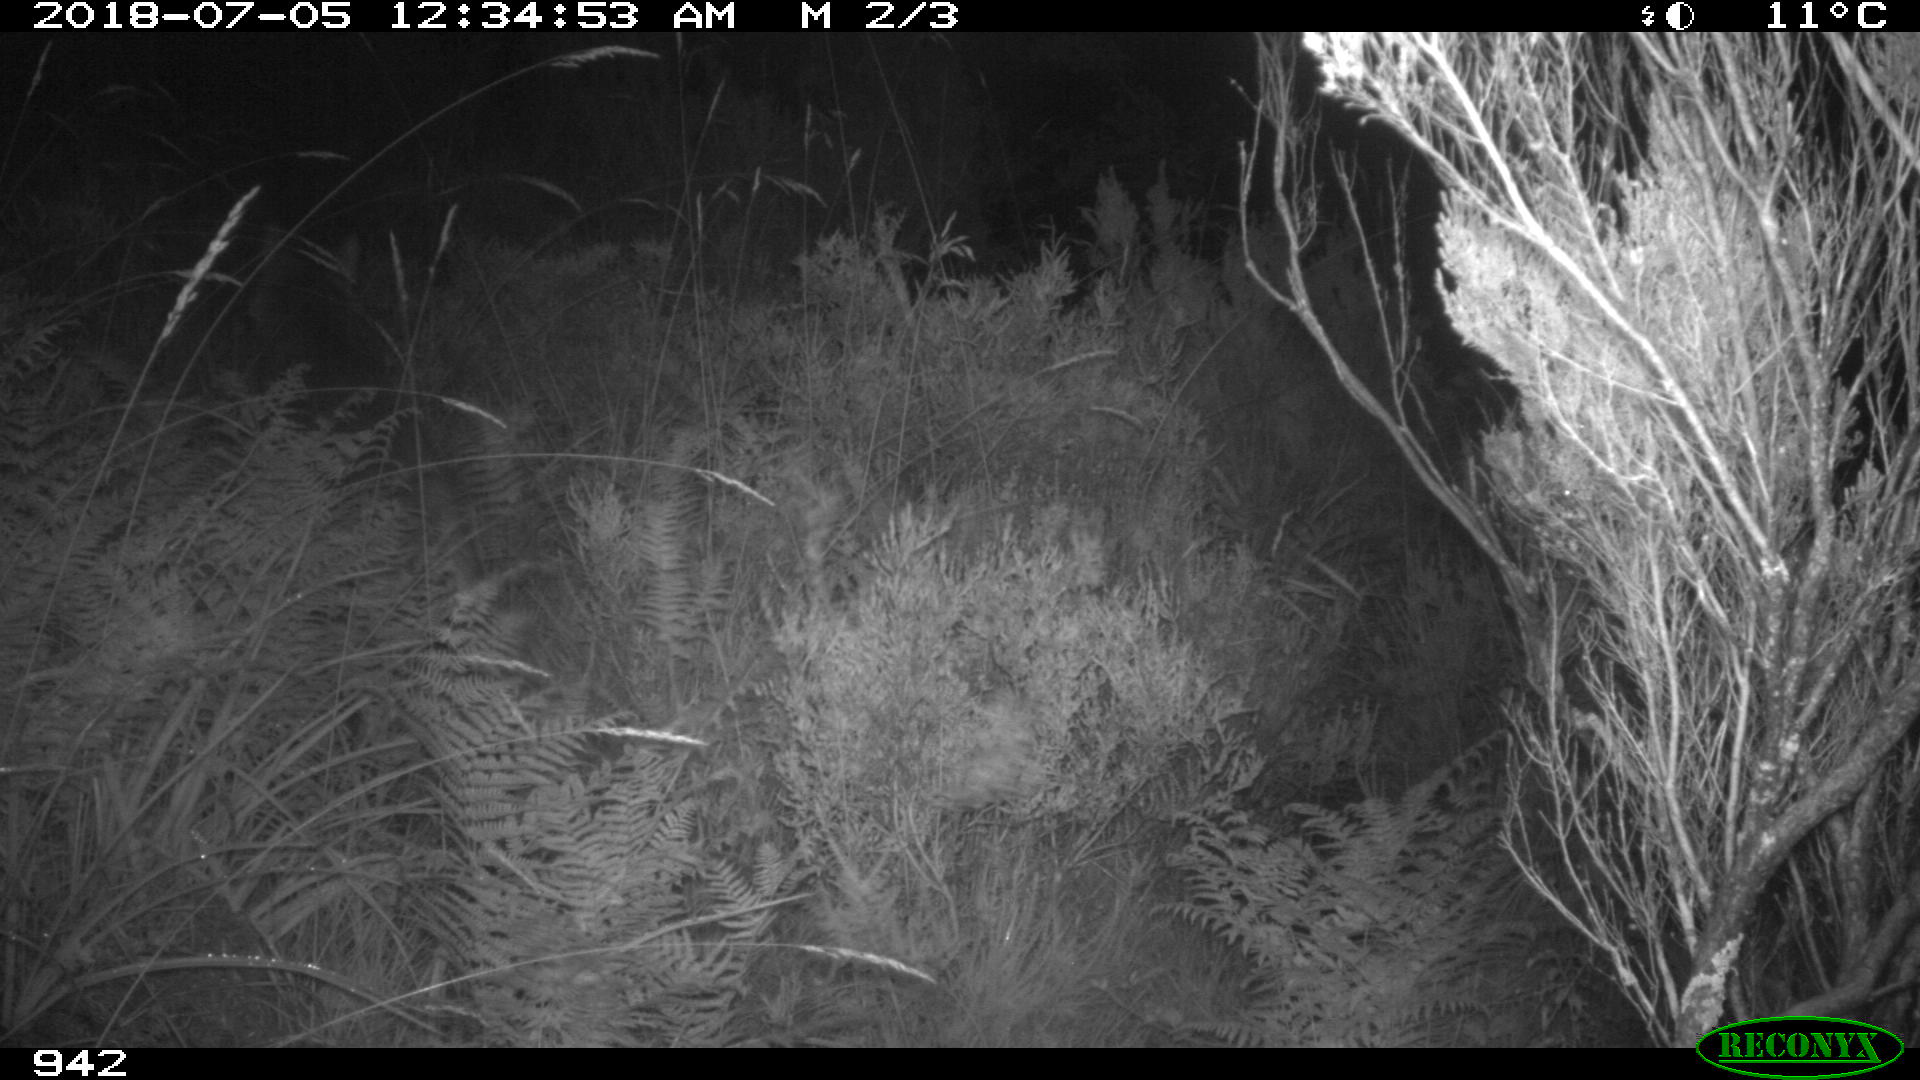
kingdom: Animalia
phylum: Chordata
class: Mammalia
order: Carnivora
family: Canidae
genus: Canis
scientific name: Canis lupus
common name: Gray wolf
